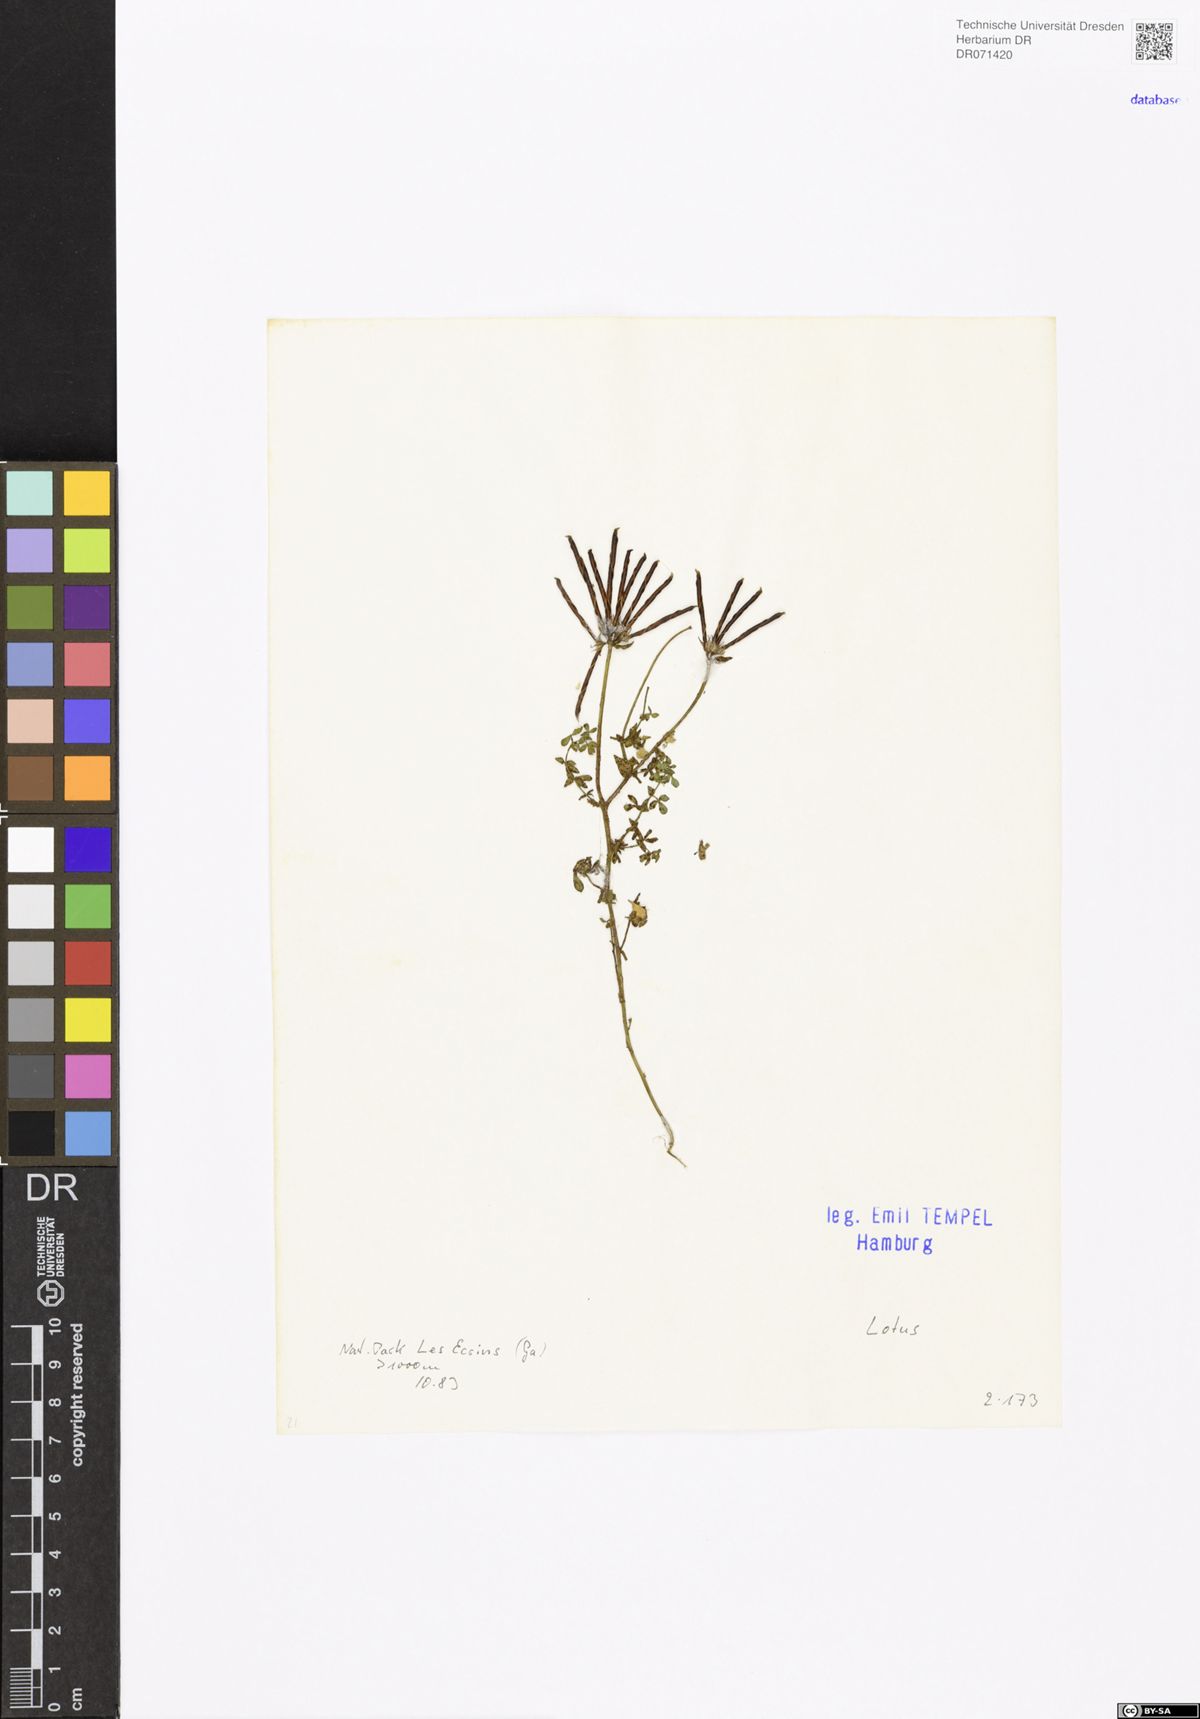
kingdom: Plantae
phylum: Tracheophyta
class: Magnoliopsida
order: Fabales
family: Fabaceae
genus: Lotus
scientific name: Lotus
